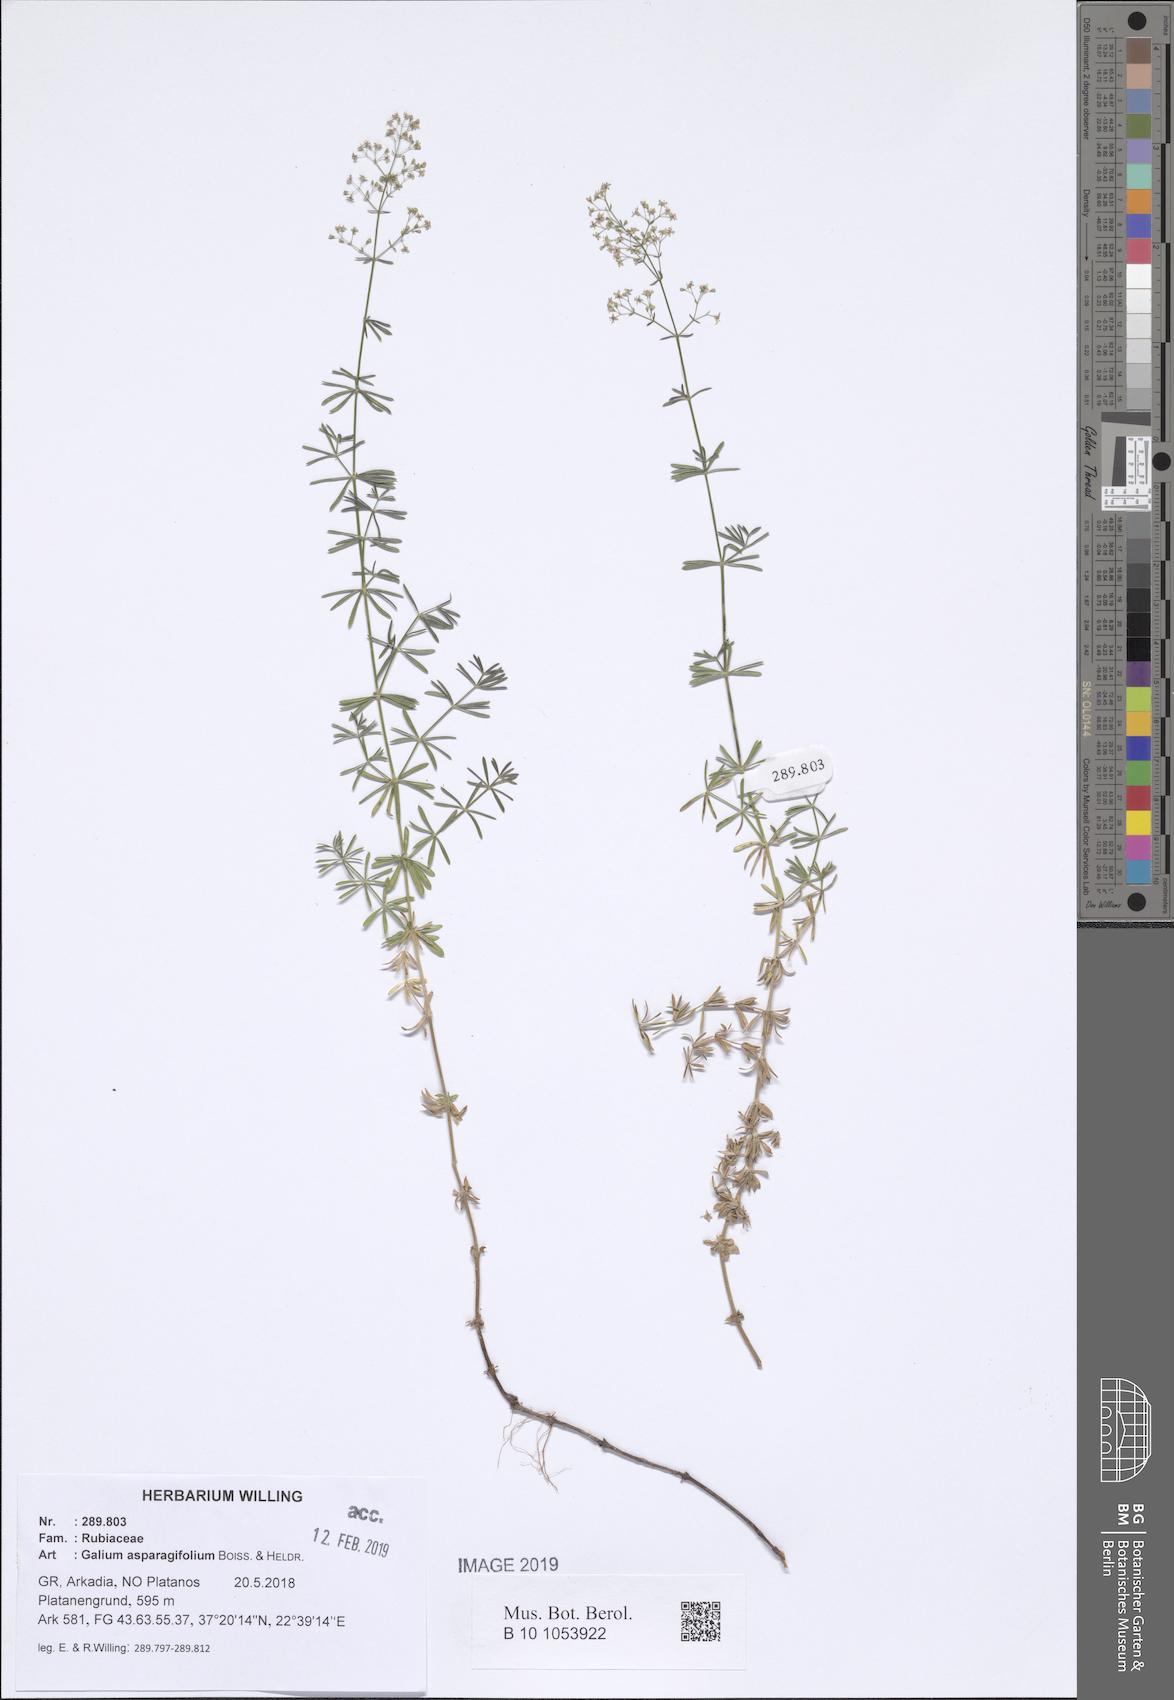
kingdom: Plantae
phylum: Tracheophyta
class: Magnoliopsida
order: Gentianales
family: Rubiaceae
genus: Galium
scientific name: Galium asparagifolium
